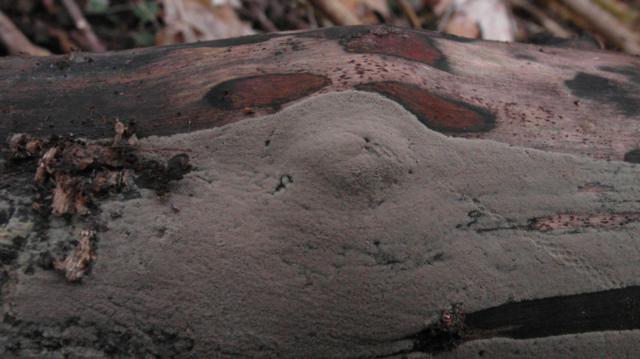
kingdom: Fungi
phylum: Ascomycota
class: Sordariomycetes
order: Xylariales
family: Hypoxylaceae
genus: Hypoxylon
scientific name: Hypoxylon petriniae
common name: nedsænket kulbær
